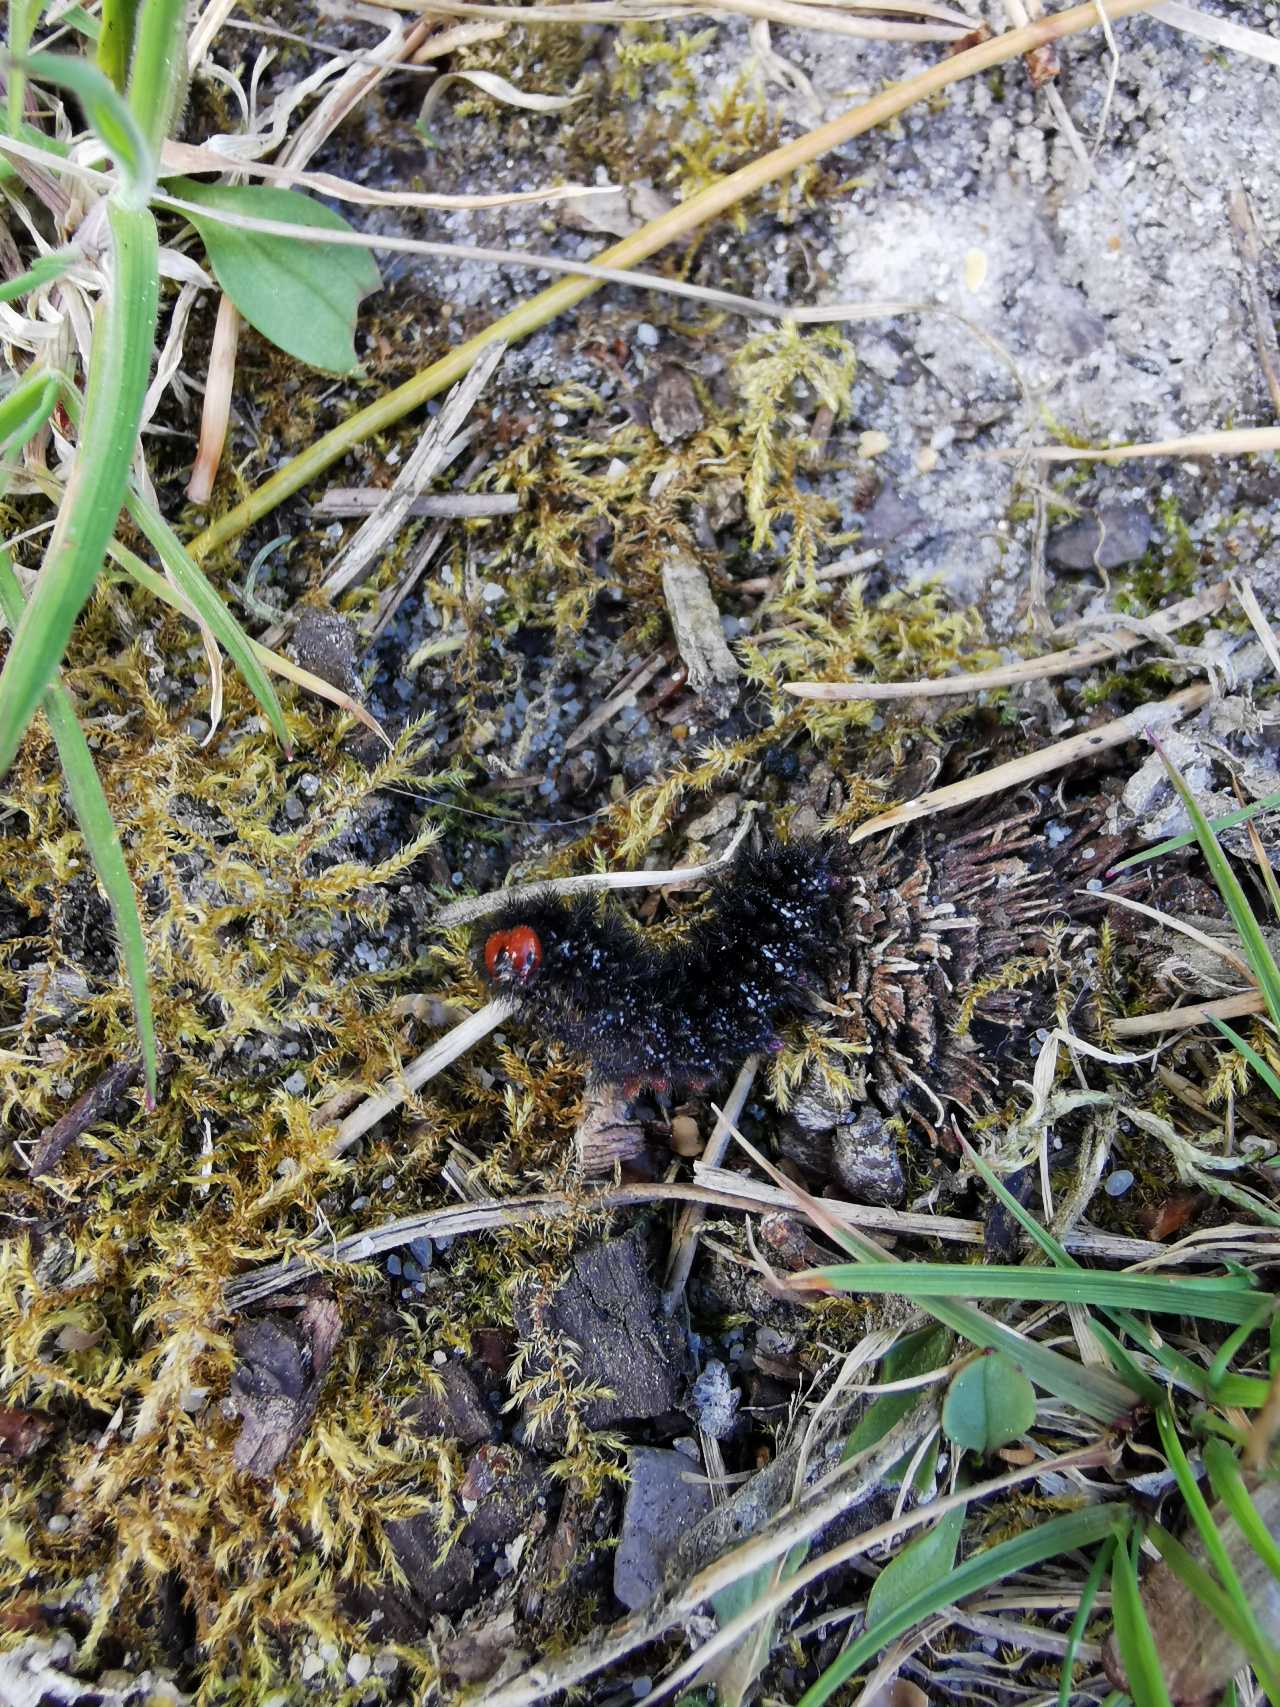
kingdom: Animalia
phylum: Arthropoda
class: Insecta
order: Lepidoptera
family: Nymphalidae
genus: Melitaea
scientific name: Melitaea cinxia
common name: Okkergul pletvinge
